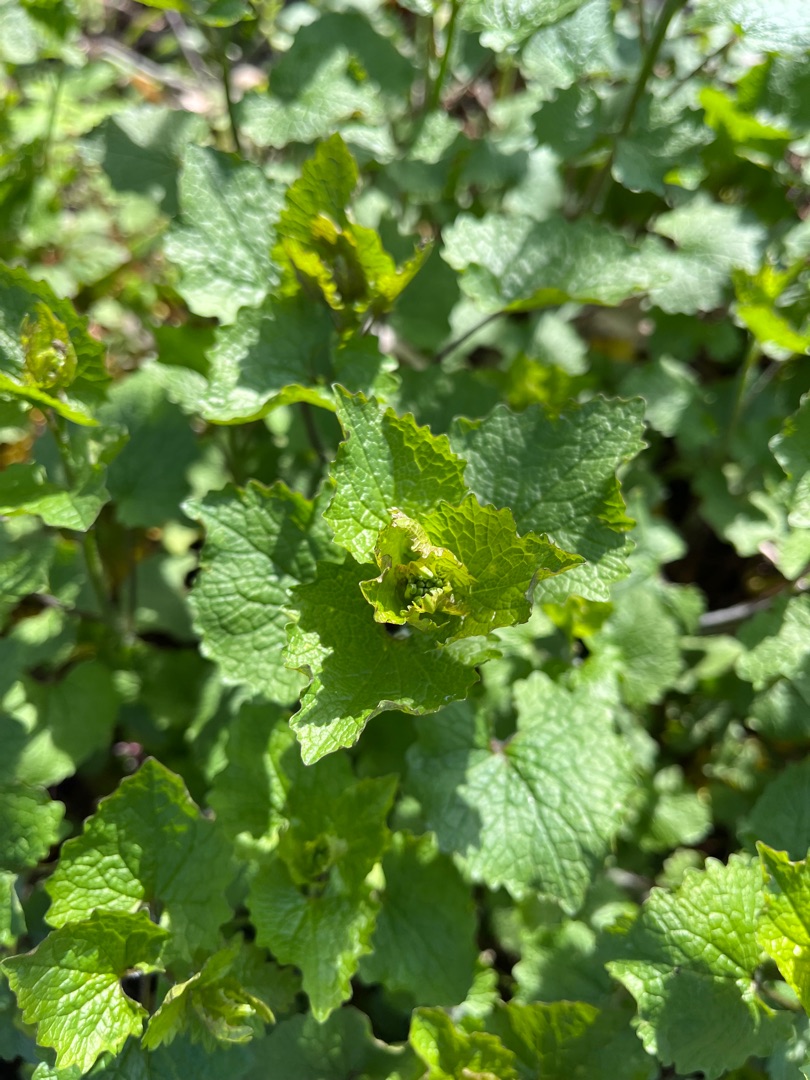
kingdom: Plantae
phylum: Tracheophyta
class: Magnoliopsida
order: Brassicales
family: Brassicaceae
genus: Alliaria
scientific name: Alliaria petiolata
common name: Løgkarse
